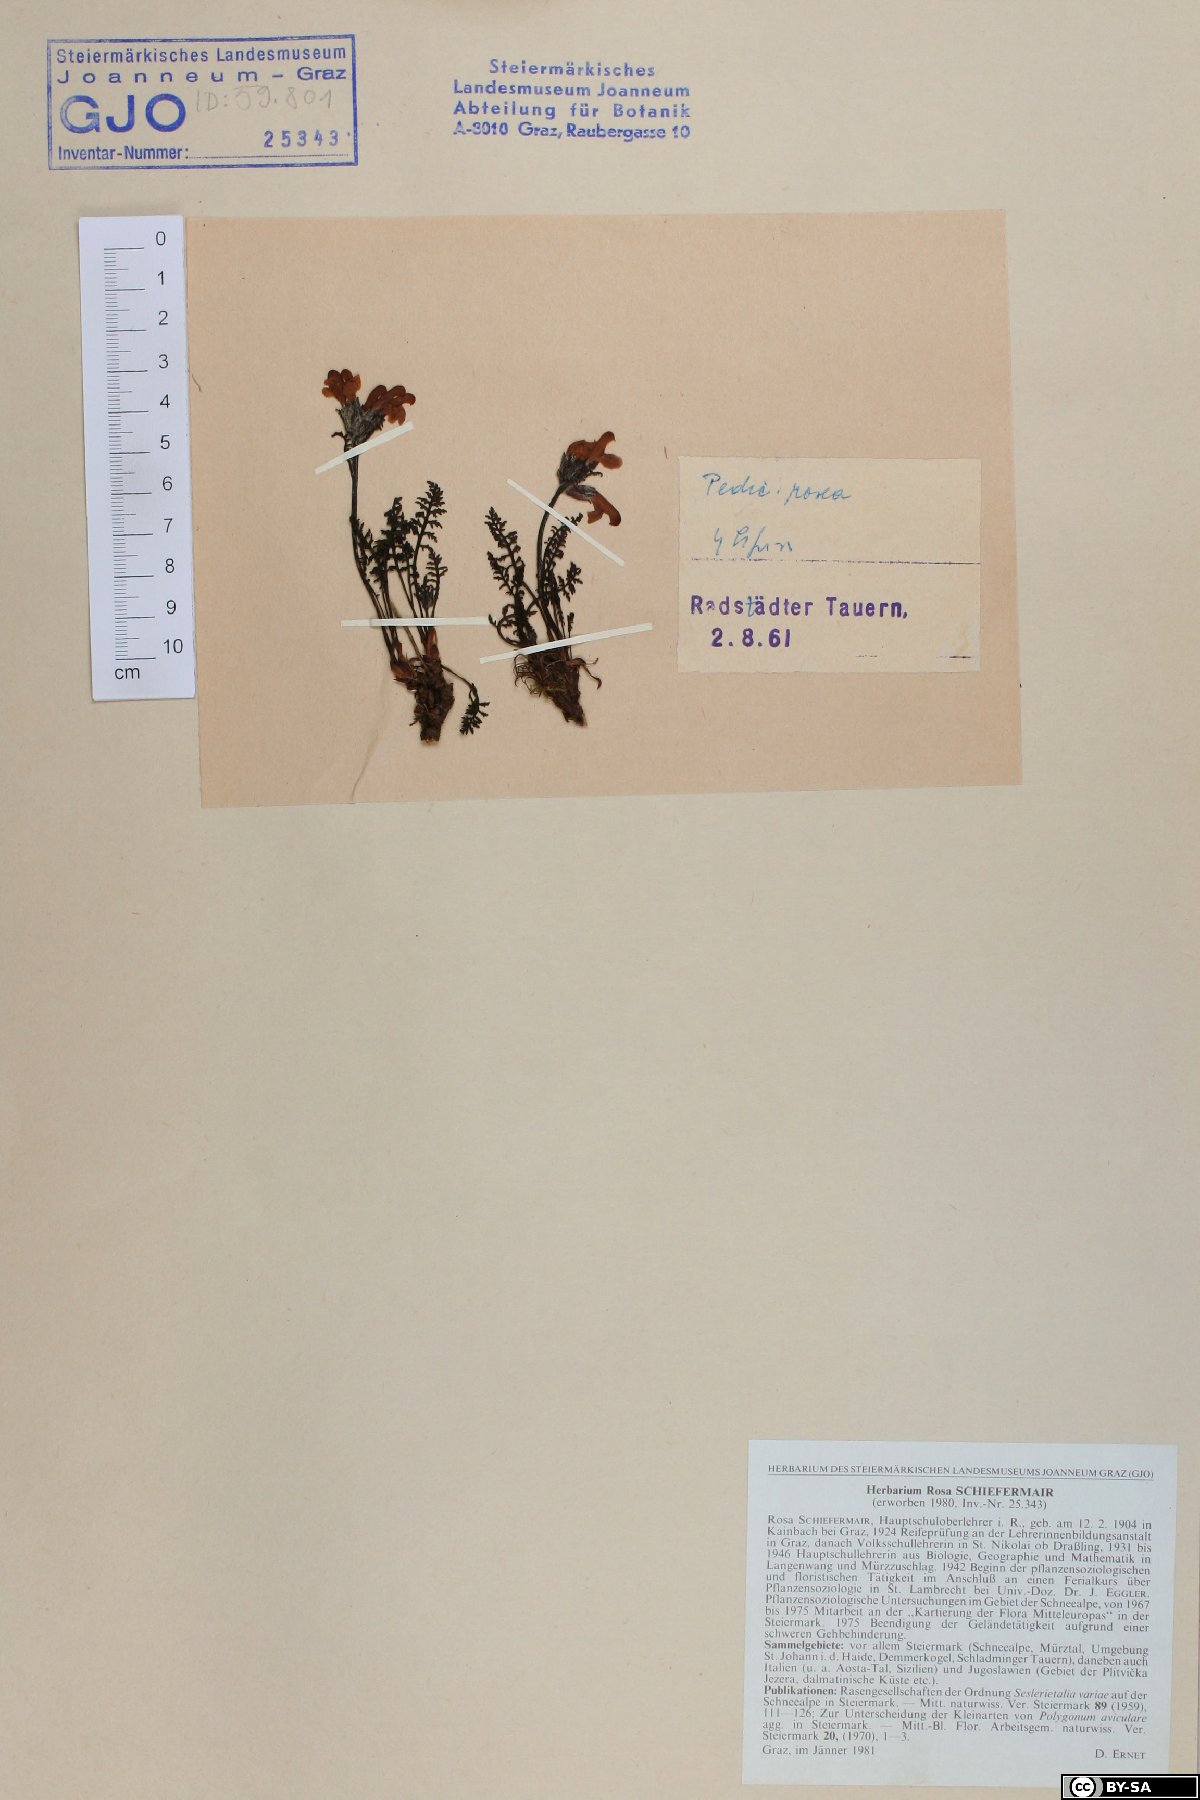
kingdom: Plantae
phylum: Tracheophyta
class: Magnoliopsida
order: Lamiales
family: Orobanchaceae
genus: Pedicularis
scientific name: Pedicularis rosea
